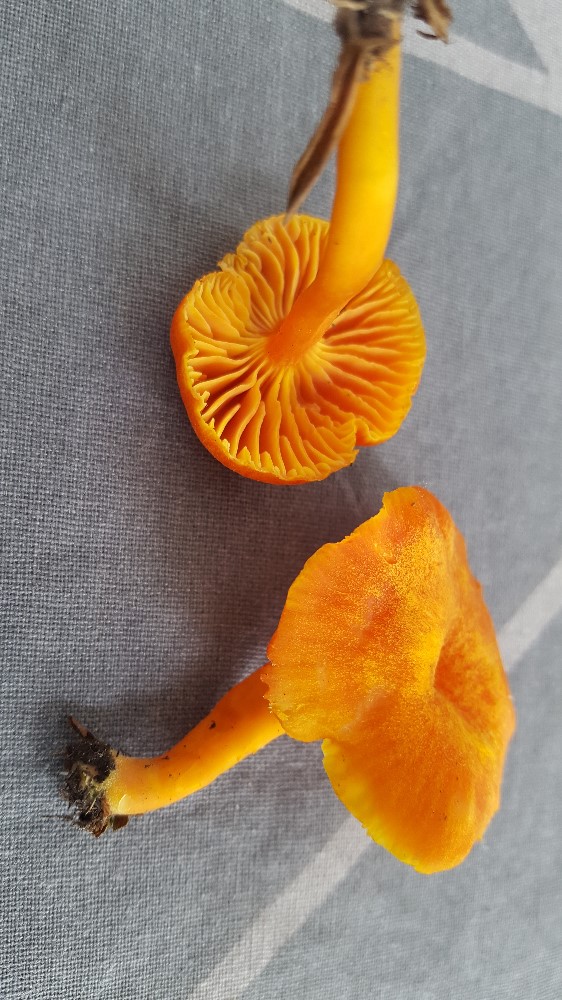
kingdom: Fungi
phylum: Basidiomycota
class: Agaricomycetes
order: Agaricales
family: Hygrophoraceae
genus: Hygrocybe
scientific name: Hygrocybe miniata
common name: mønje-vokshat
